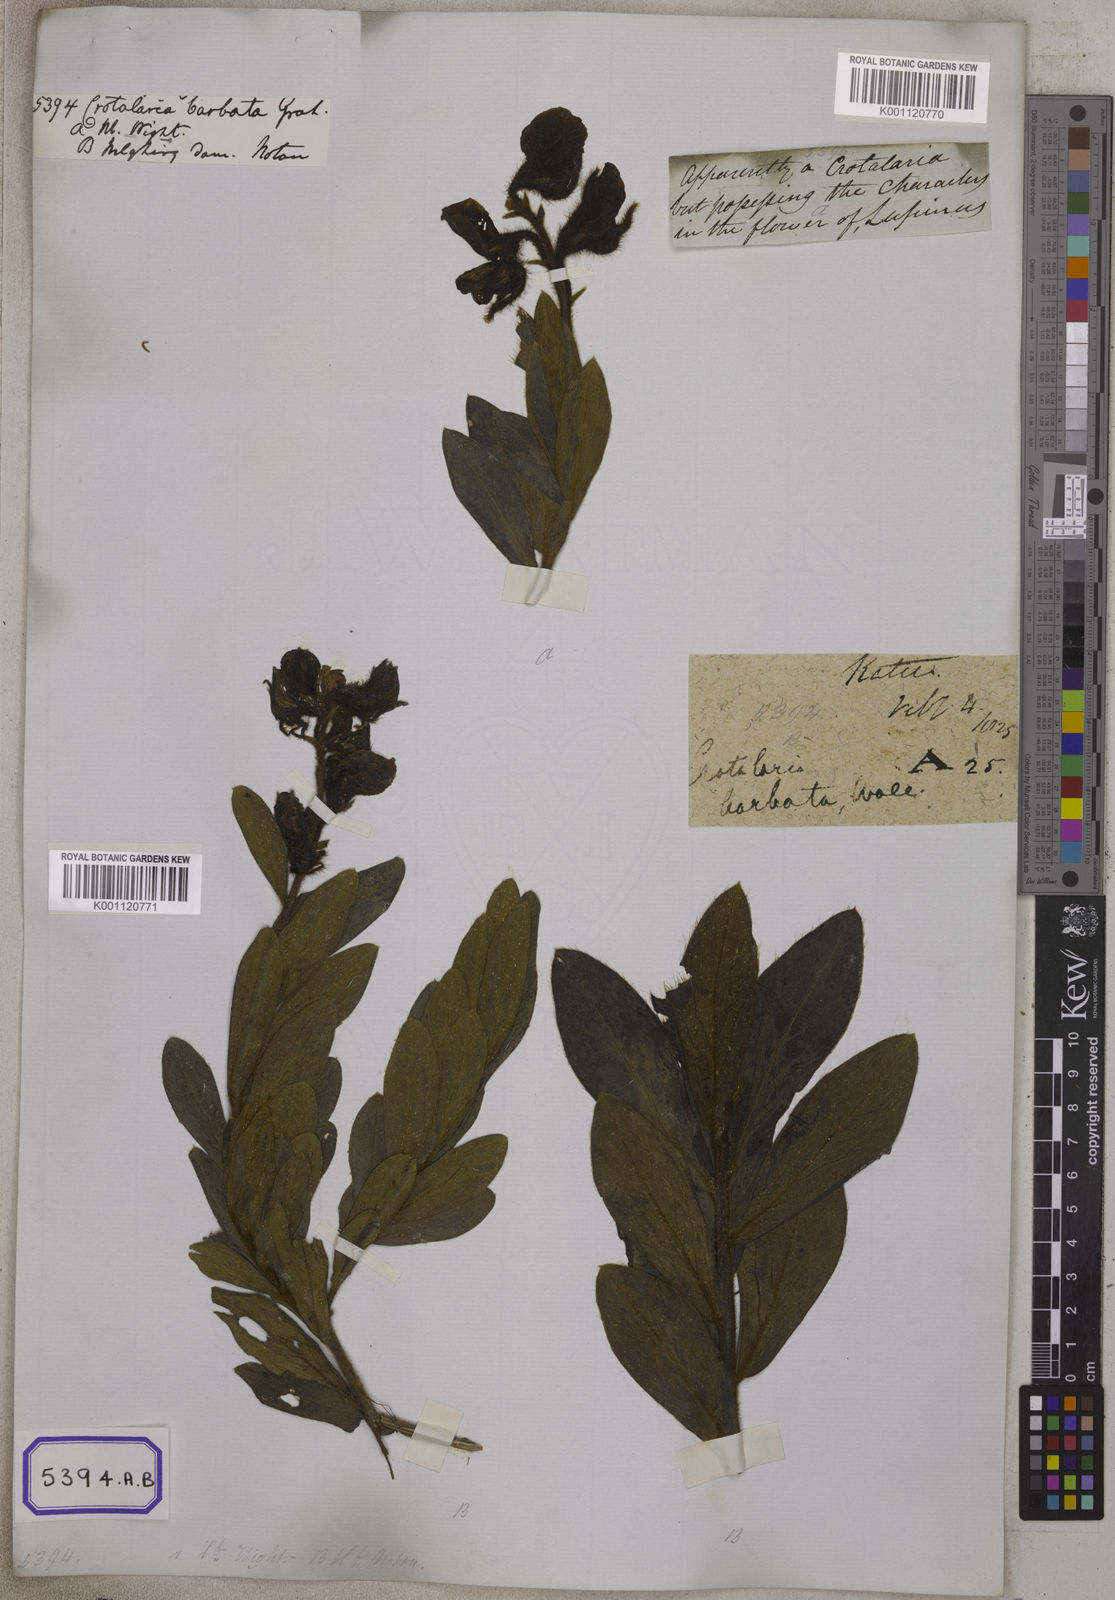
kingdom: Plantae
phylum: Tracheophyta
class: Magnoliopsida
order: Fabales
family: Fabaceae
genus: Crotalaria
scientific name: Crotalaria
